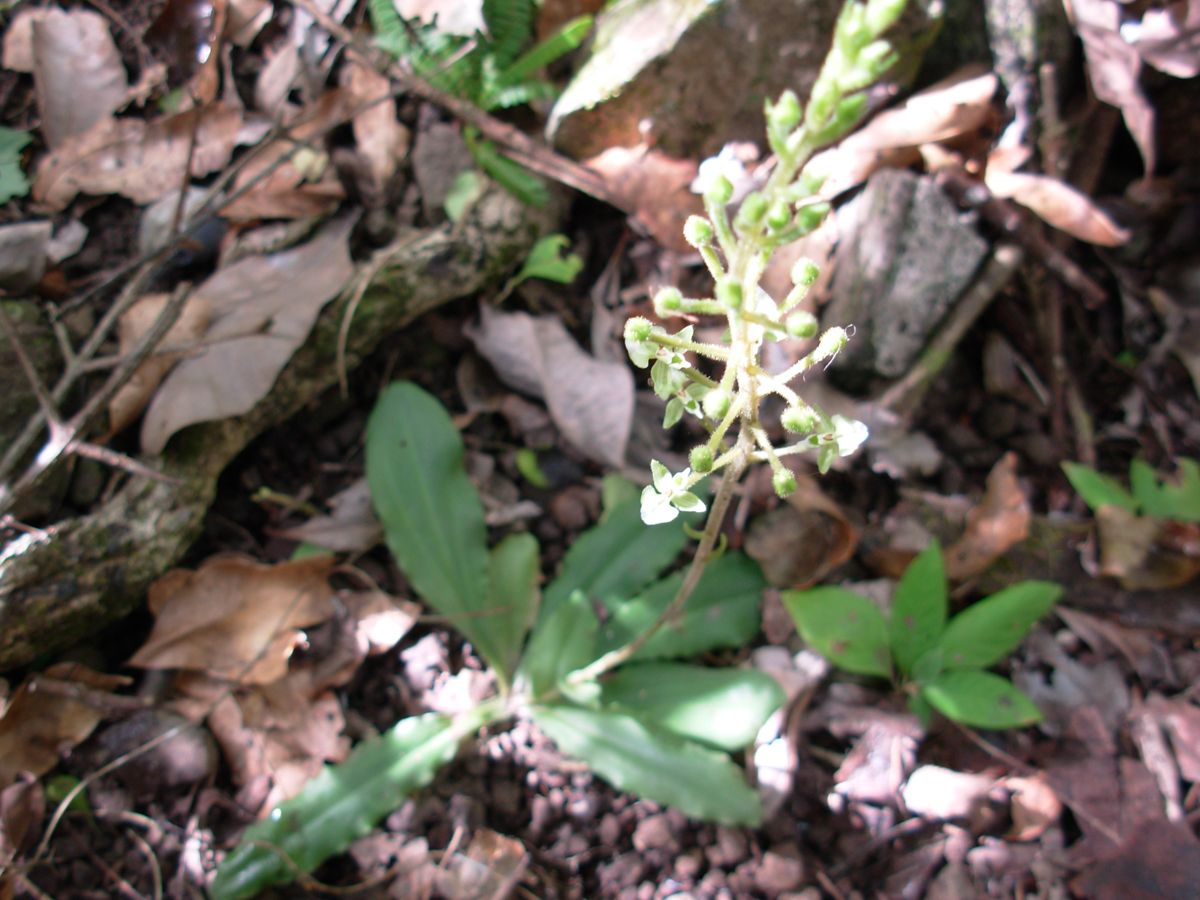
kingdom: Plantae
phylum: Tracheophyta
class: Liliopsida
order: Asparagales
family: Orchidaceae
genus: Ponthieva
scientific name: Ponthieva racemosa
